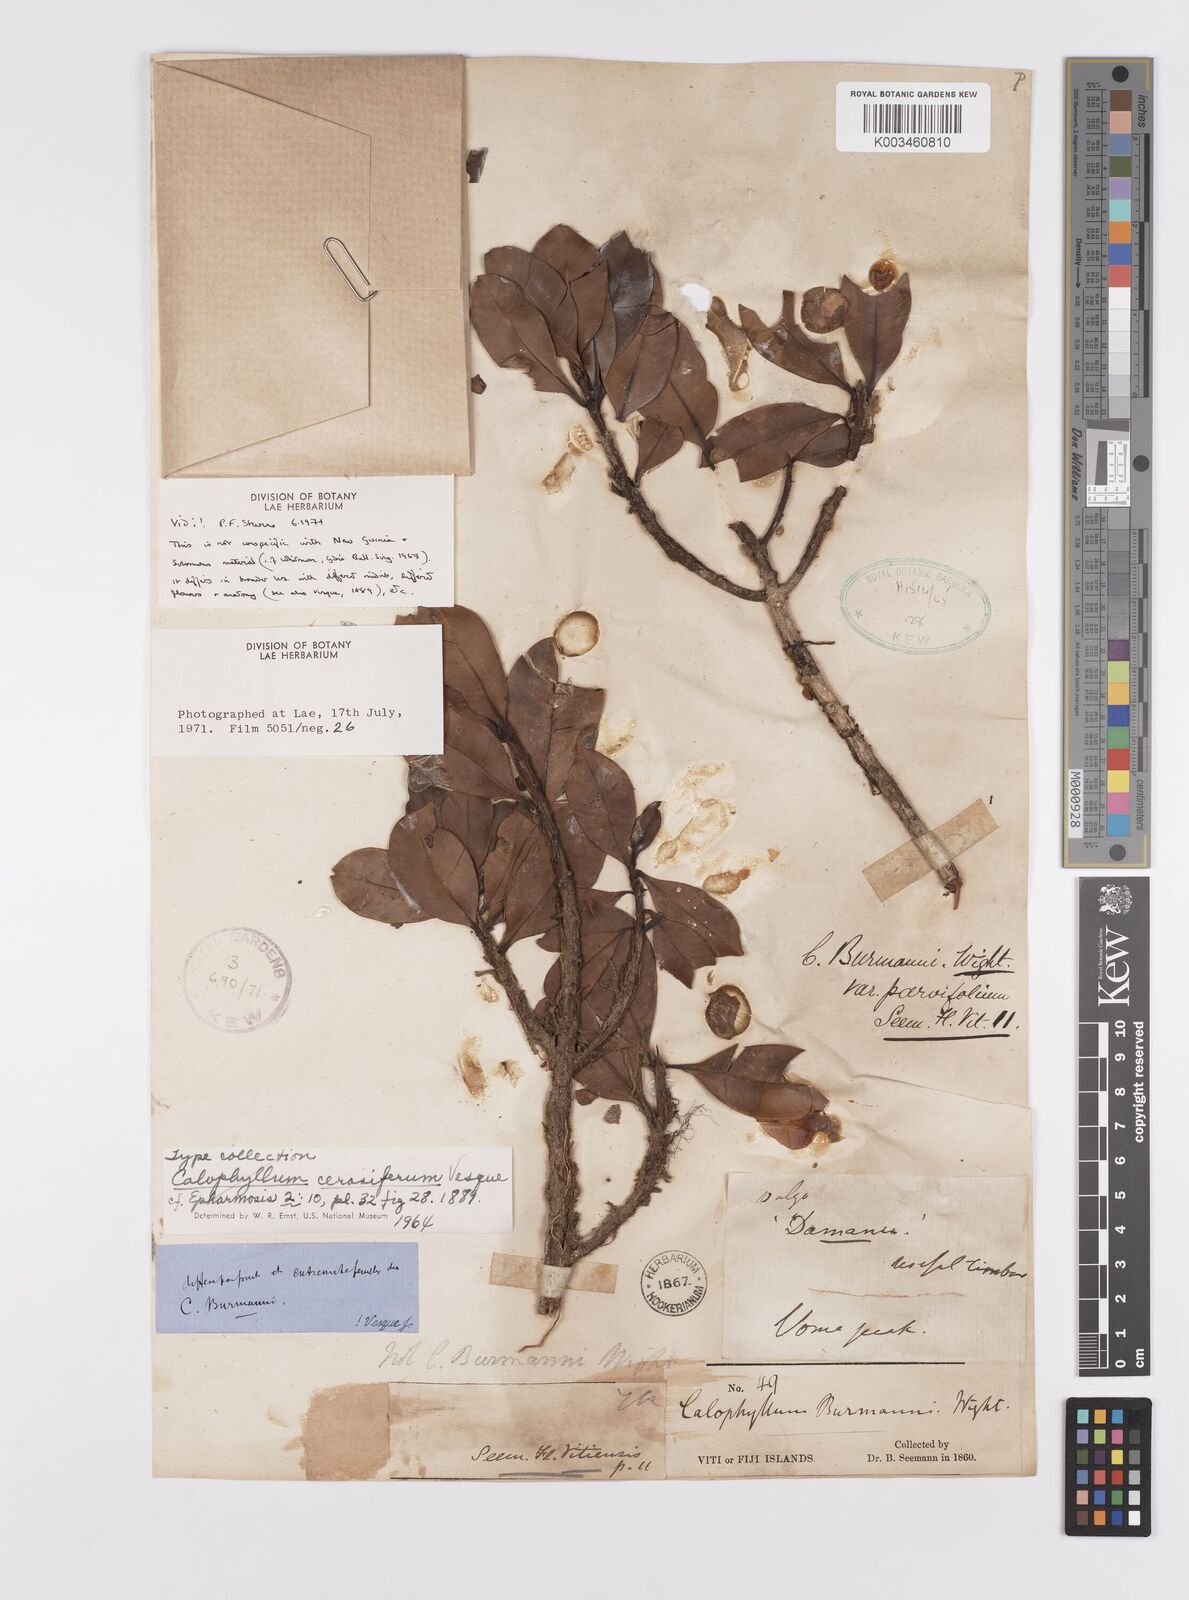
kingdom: Plantae
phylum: Tracheophyta
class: Magnoliopsida
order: Malpighiales
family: Calophyllaceae
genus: Calophyllum
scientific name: Calophyllum cerasiferum
